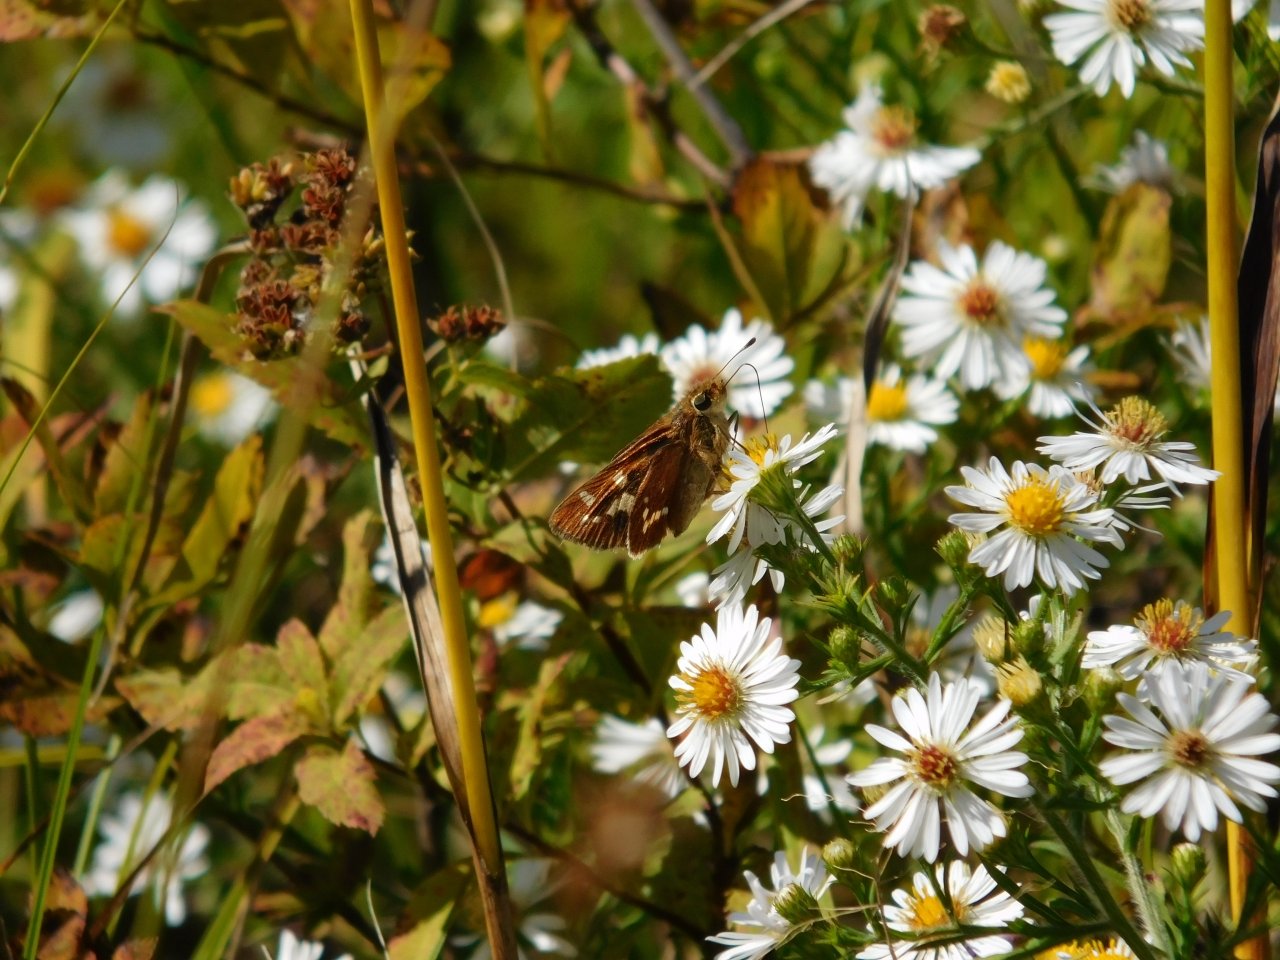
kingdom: Animalia
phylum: Arthropoda
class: Insecta
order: Lepidoptera
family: Hesperiidae
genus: Hesperia
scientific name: Hesperia leonardus
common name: Leonard's Skipper
